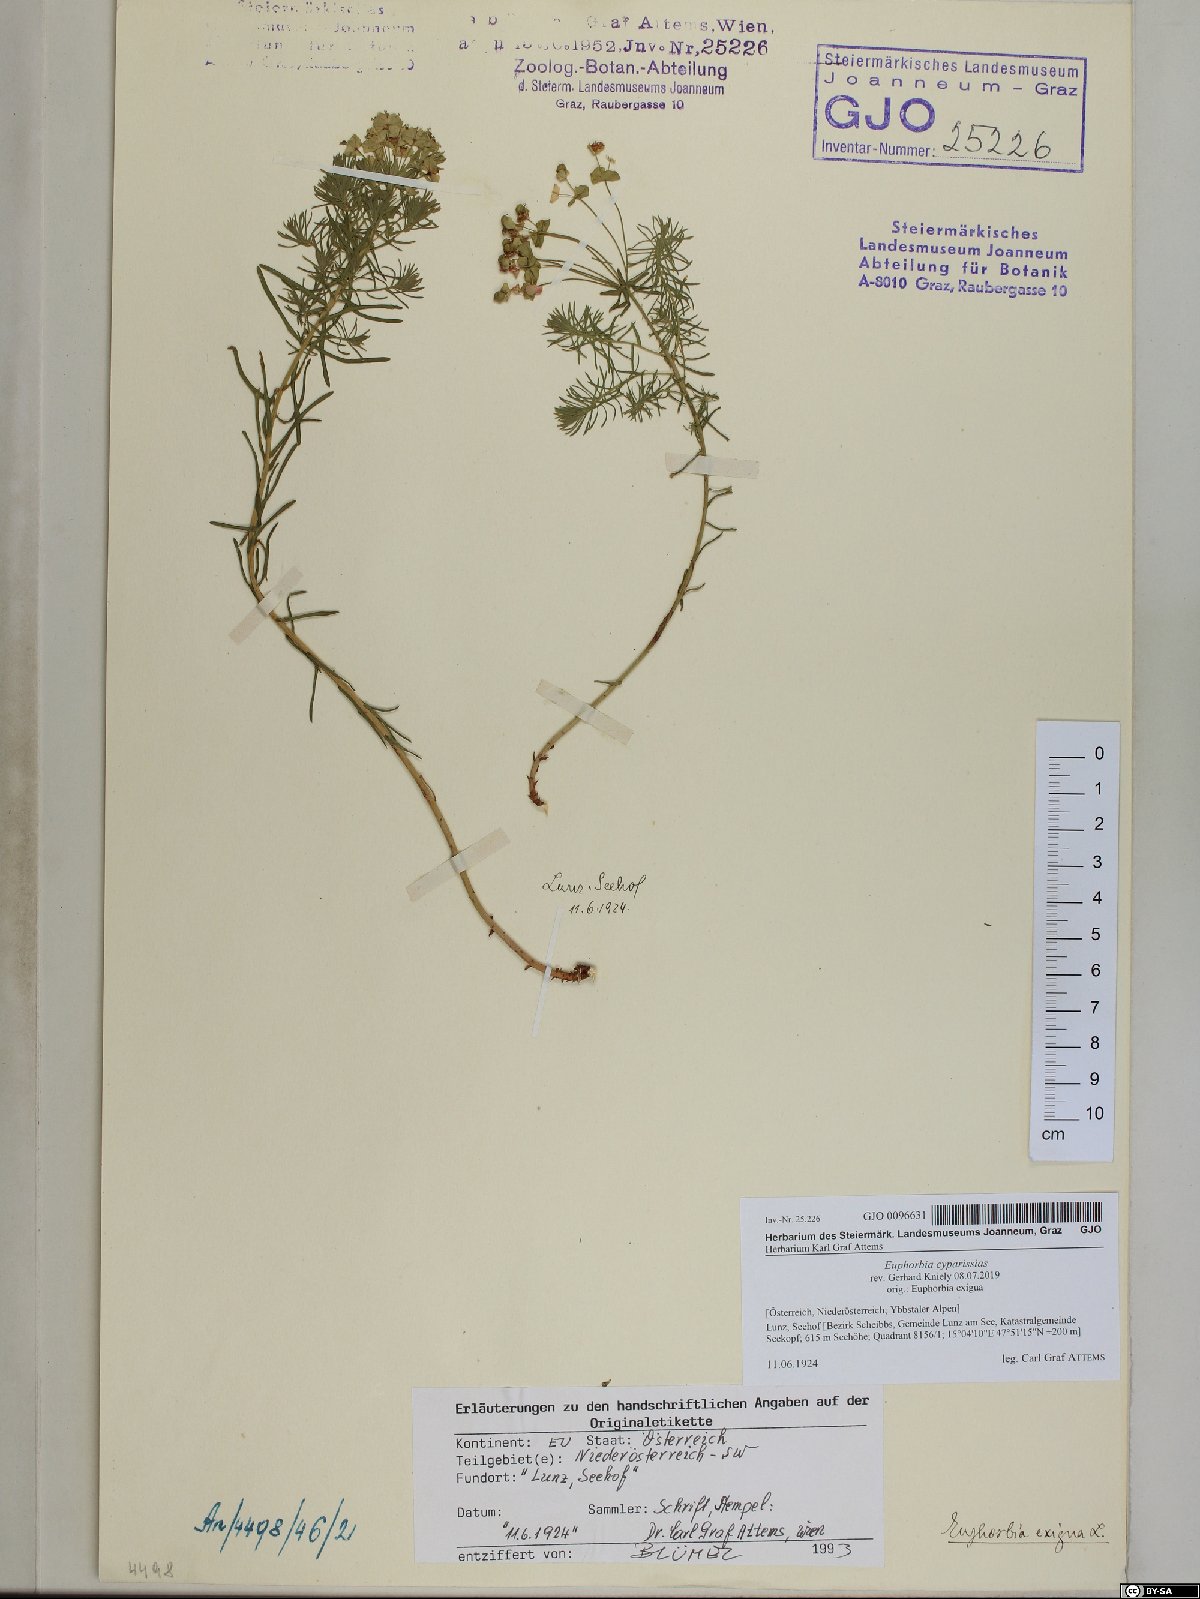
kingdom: Plantae
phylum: Tracheophyta
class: Magnoliopsida
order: Malpighiales
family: Euphorbiaceae
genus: Euphorbia
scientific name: Euphorbia cyparissias
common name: Cypress spurge
